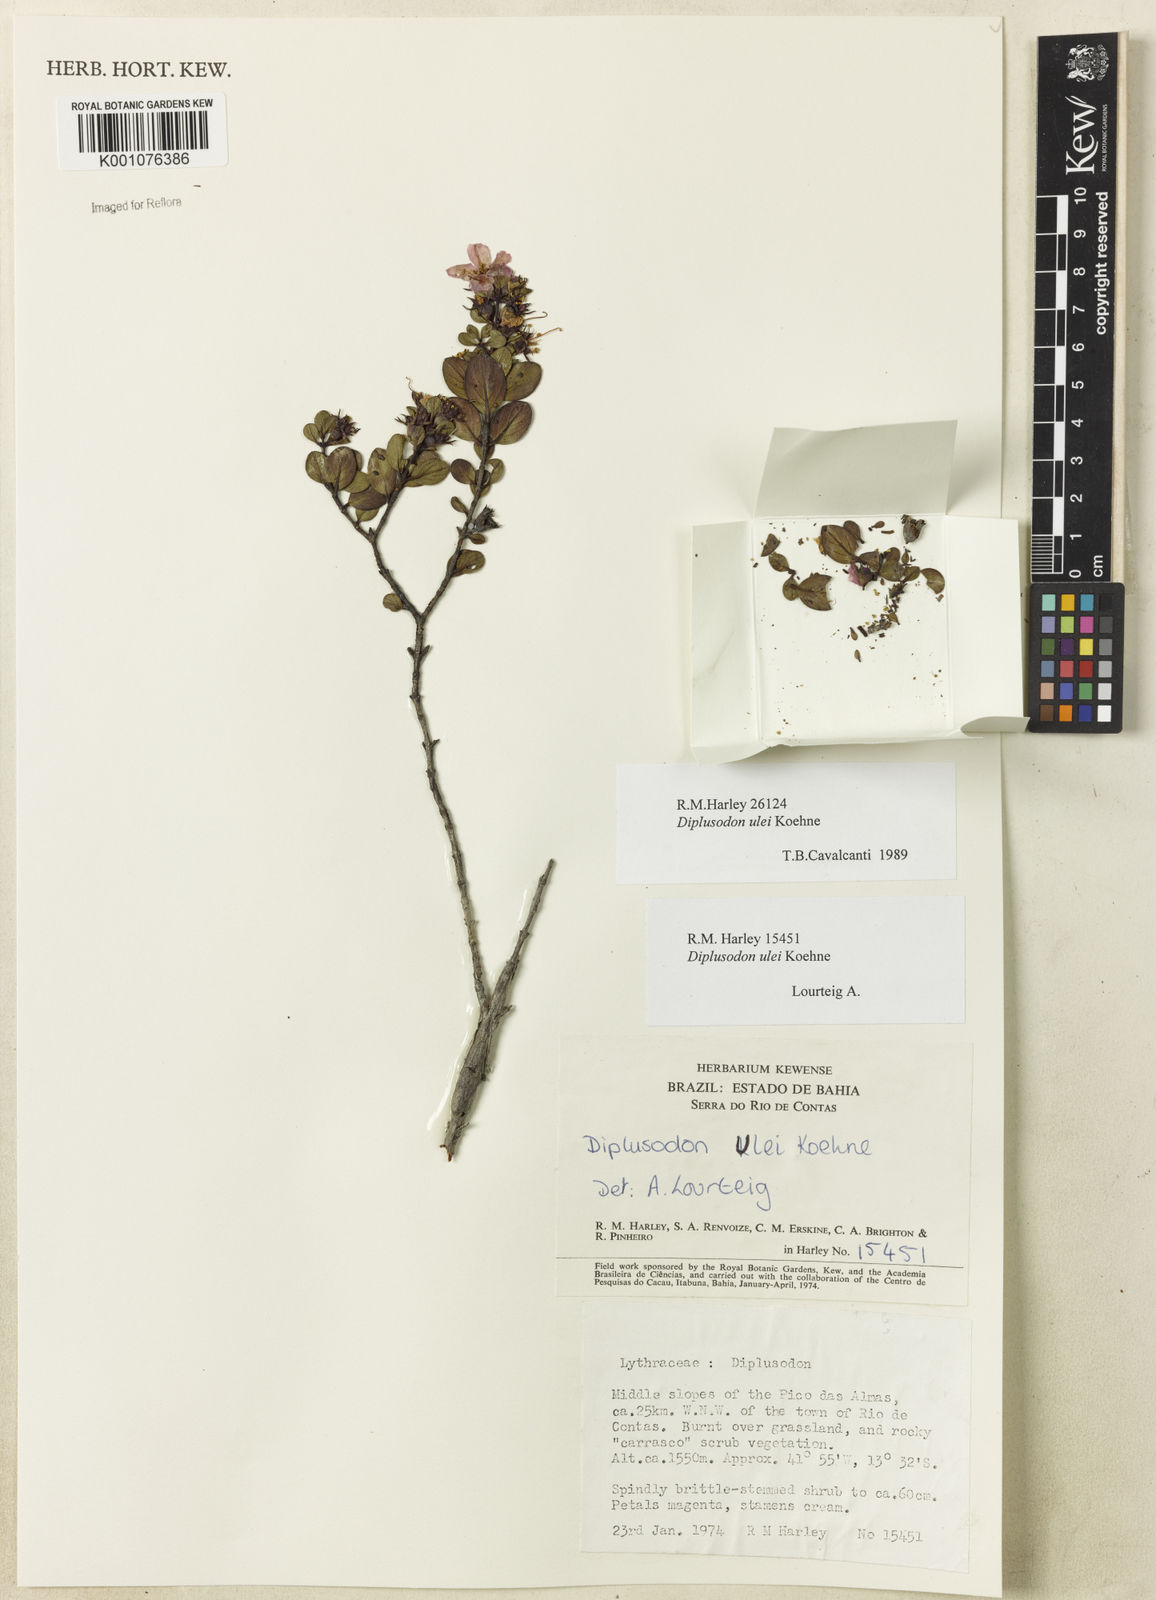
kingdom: Plantae
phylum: Tracheophyta
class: Magnoliopsida
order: Myrtales
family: Lythraceae
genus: Diplusodon
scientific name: Diplusodon ulei
